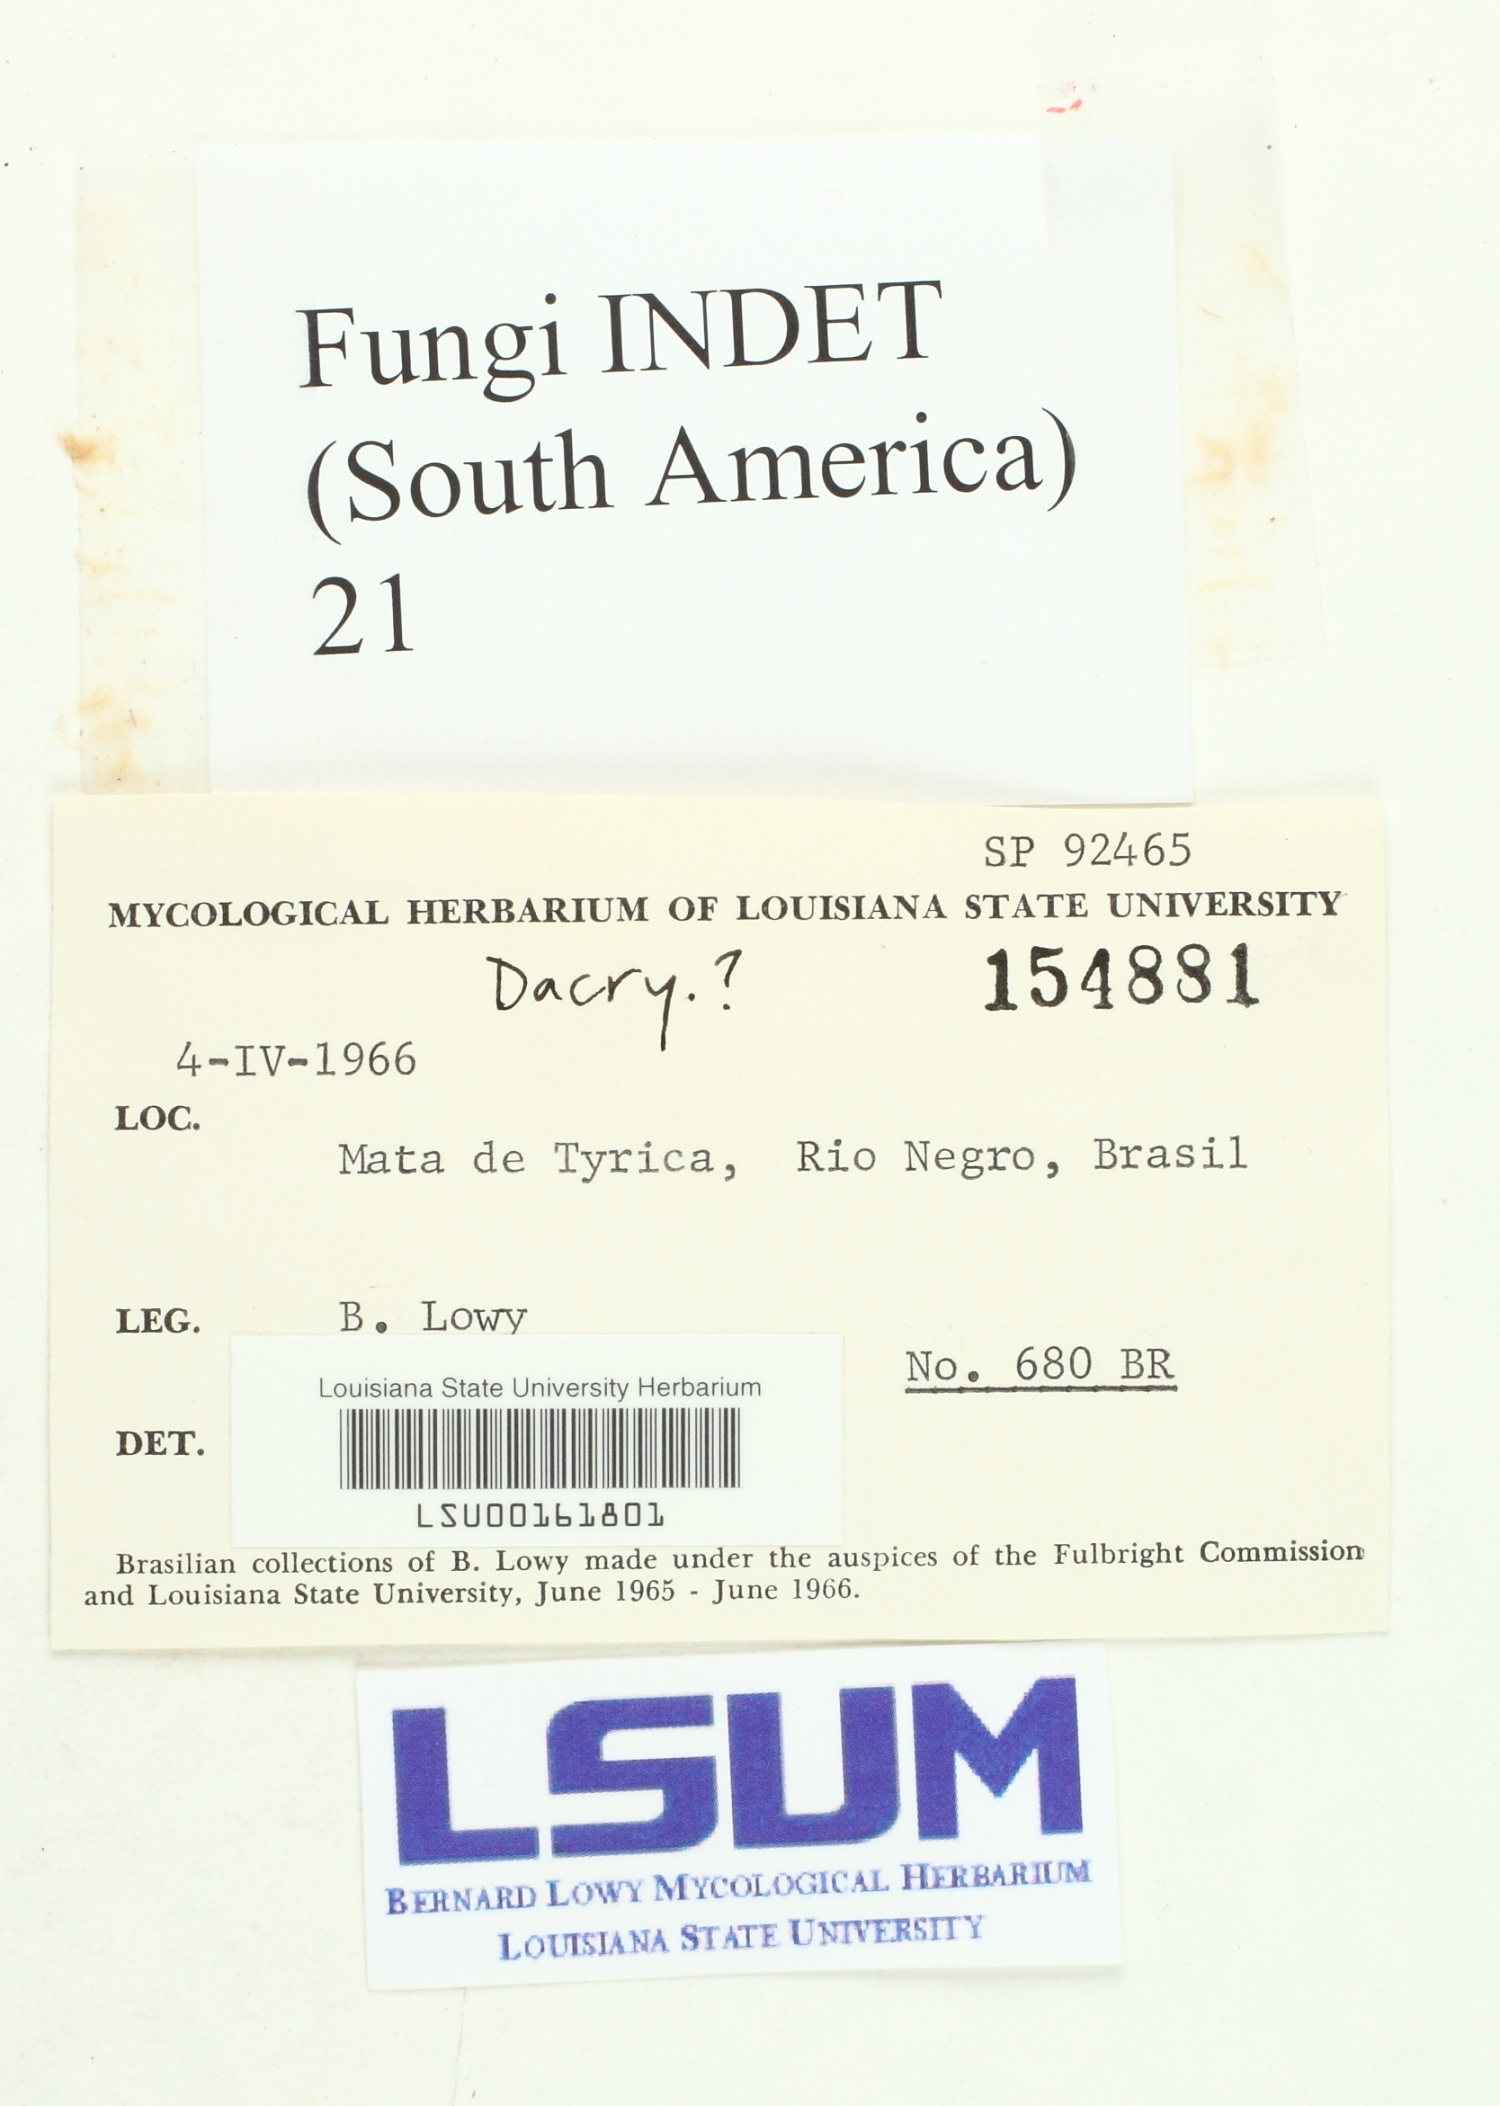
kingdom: Fungi
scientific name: Fungi
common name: Fungi
